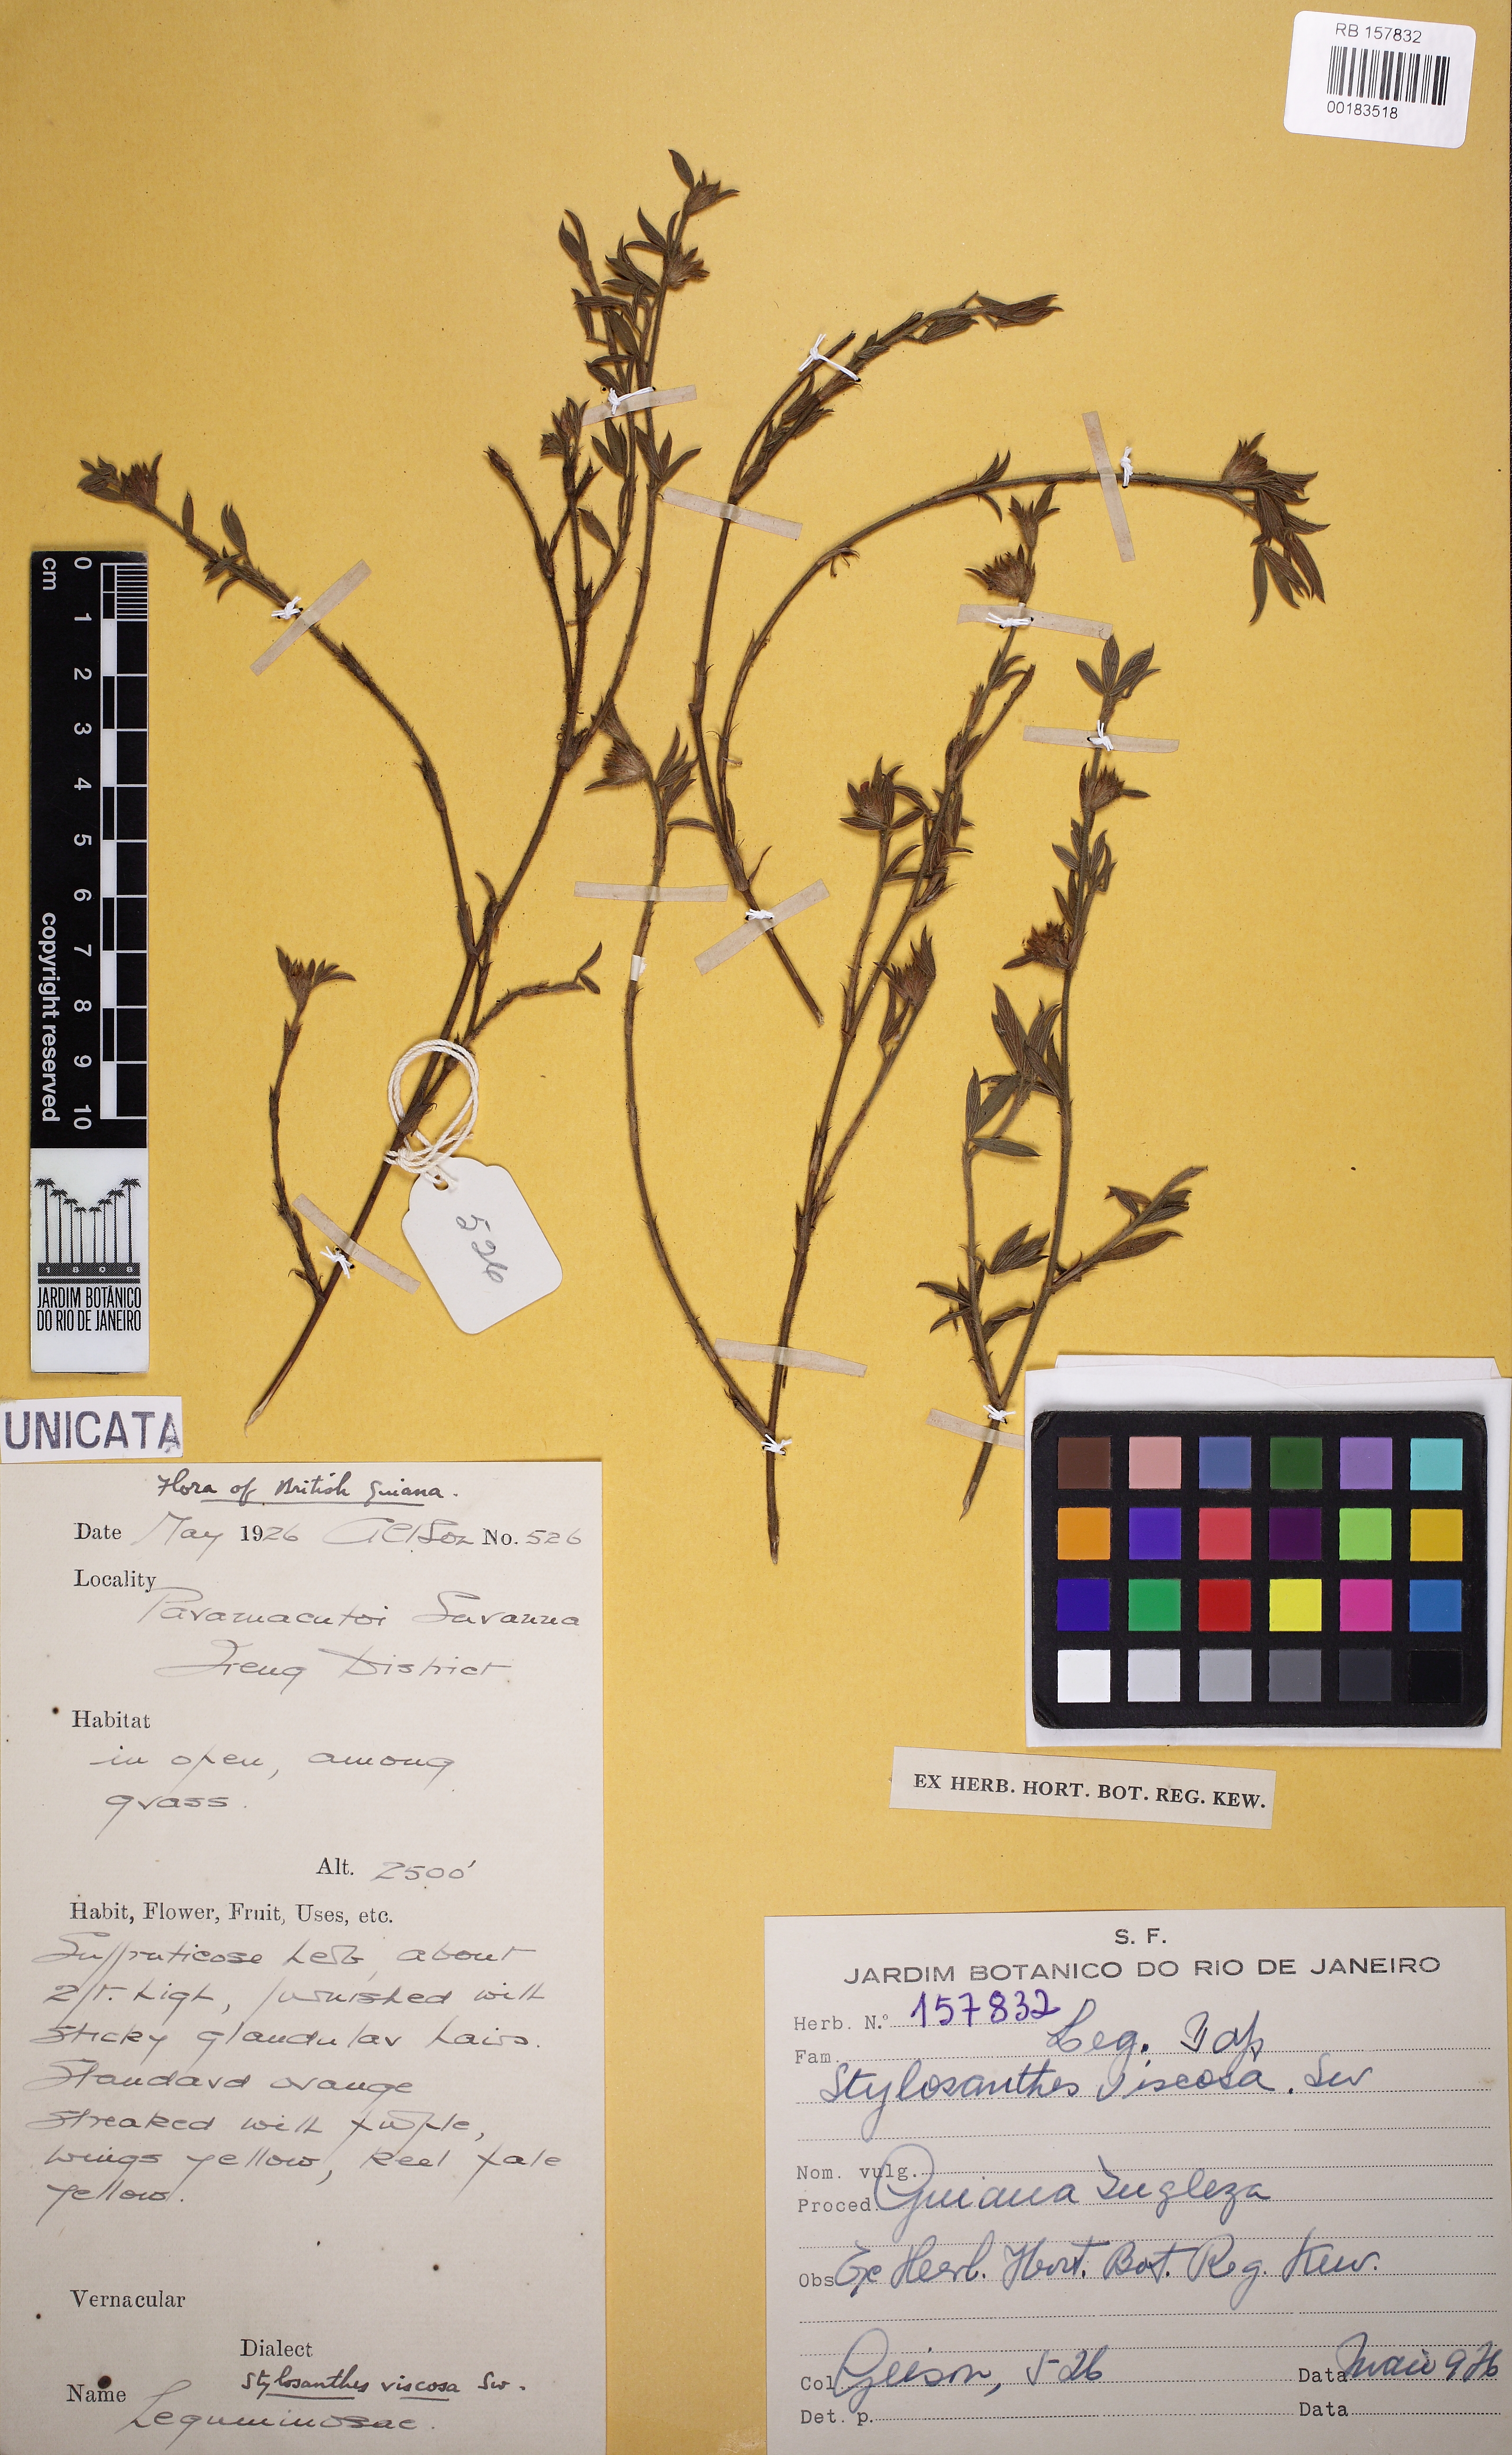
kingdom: Plantae
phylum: Tracheophyta
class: Magnoliopsida
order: Fabales
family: Fabaceae
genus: Stylosanthes
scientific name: Stylosanthes viscosa
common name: Viscid pencil-flower
